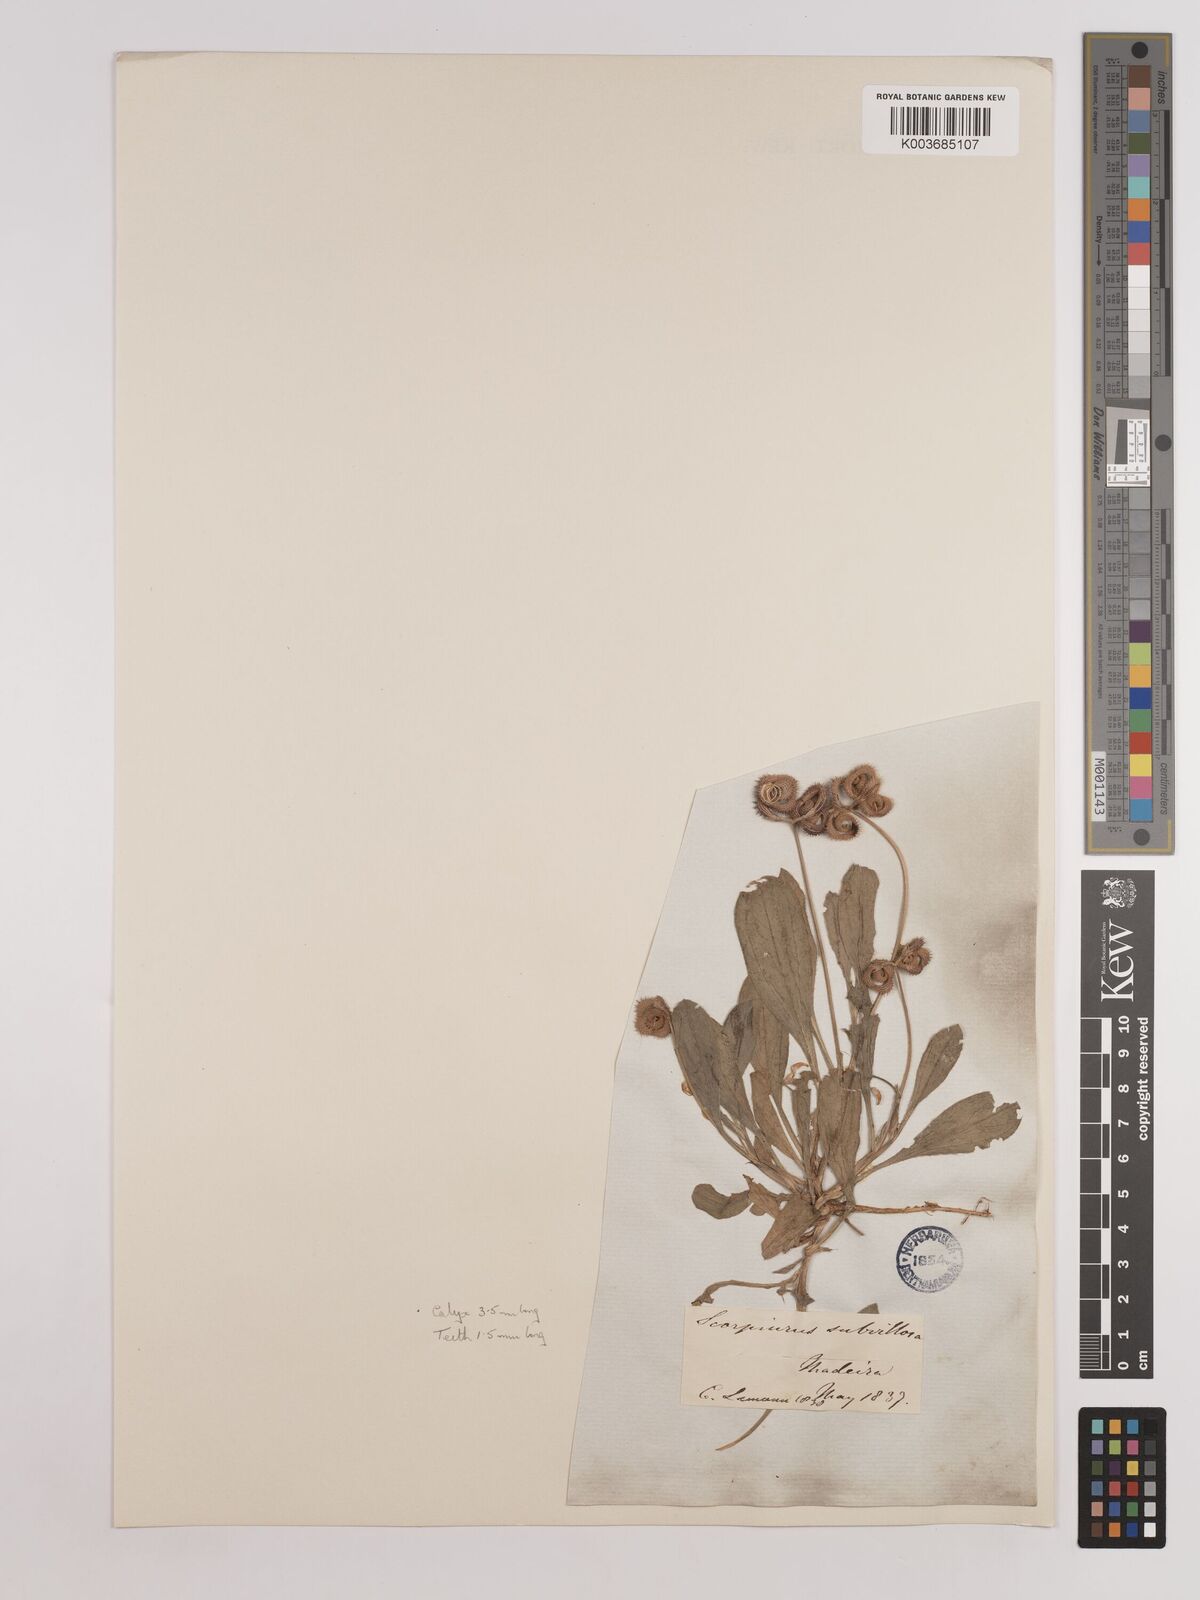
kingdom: Plantae
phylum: Tracheophyta
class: Magnoliopsida
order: Fabales
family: Fabaceae
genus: Scorpiurus
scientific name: Scorpiurus muricatus
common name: Caterpillar-plant
